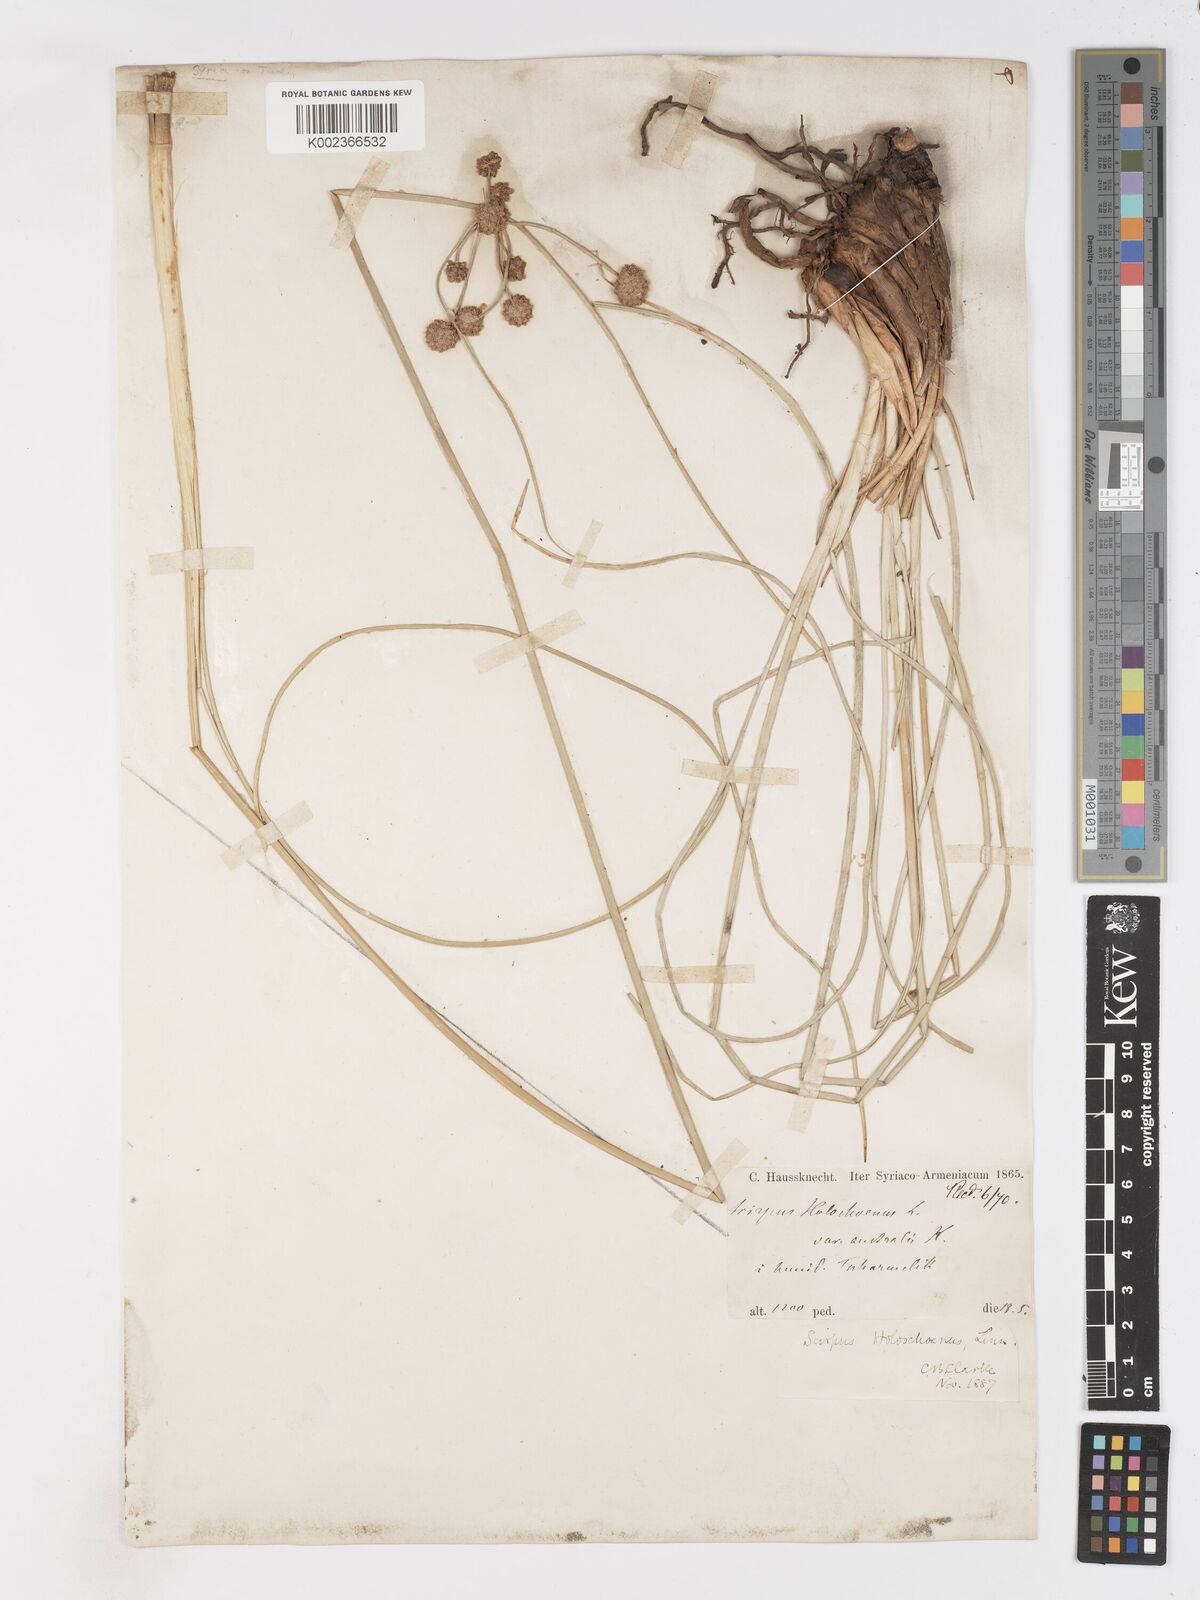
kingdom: Plantae
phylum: Tracheophyta
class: Liliopsida
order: Poales
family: Cyperaceae
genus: Scirpoides
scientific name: Scirpoides
